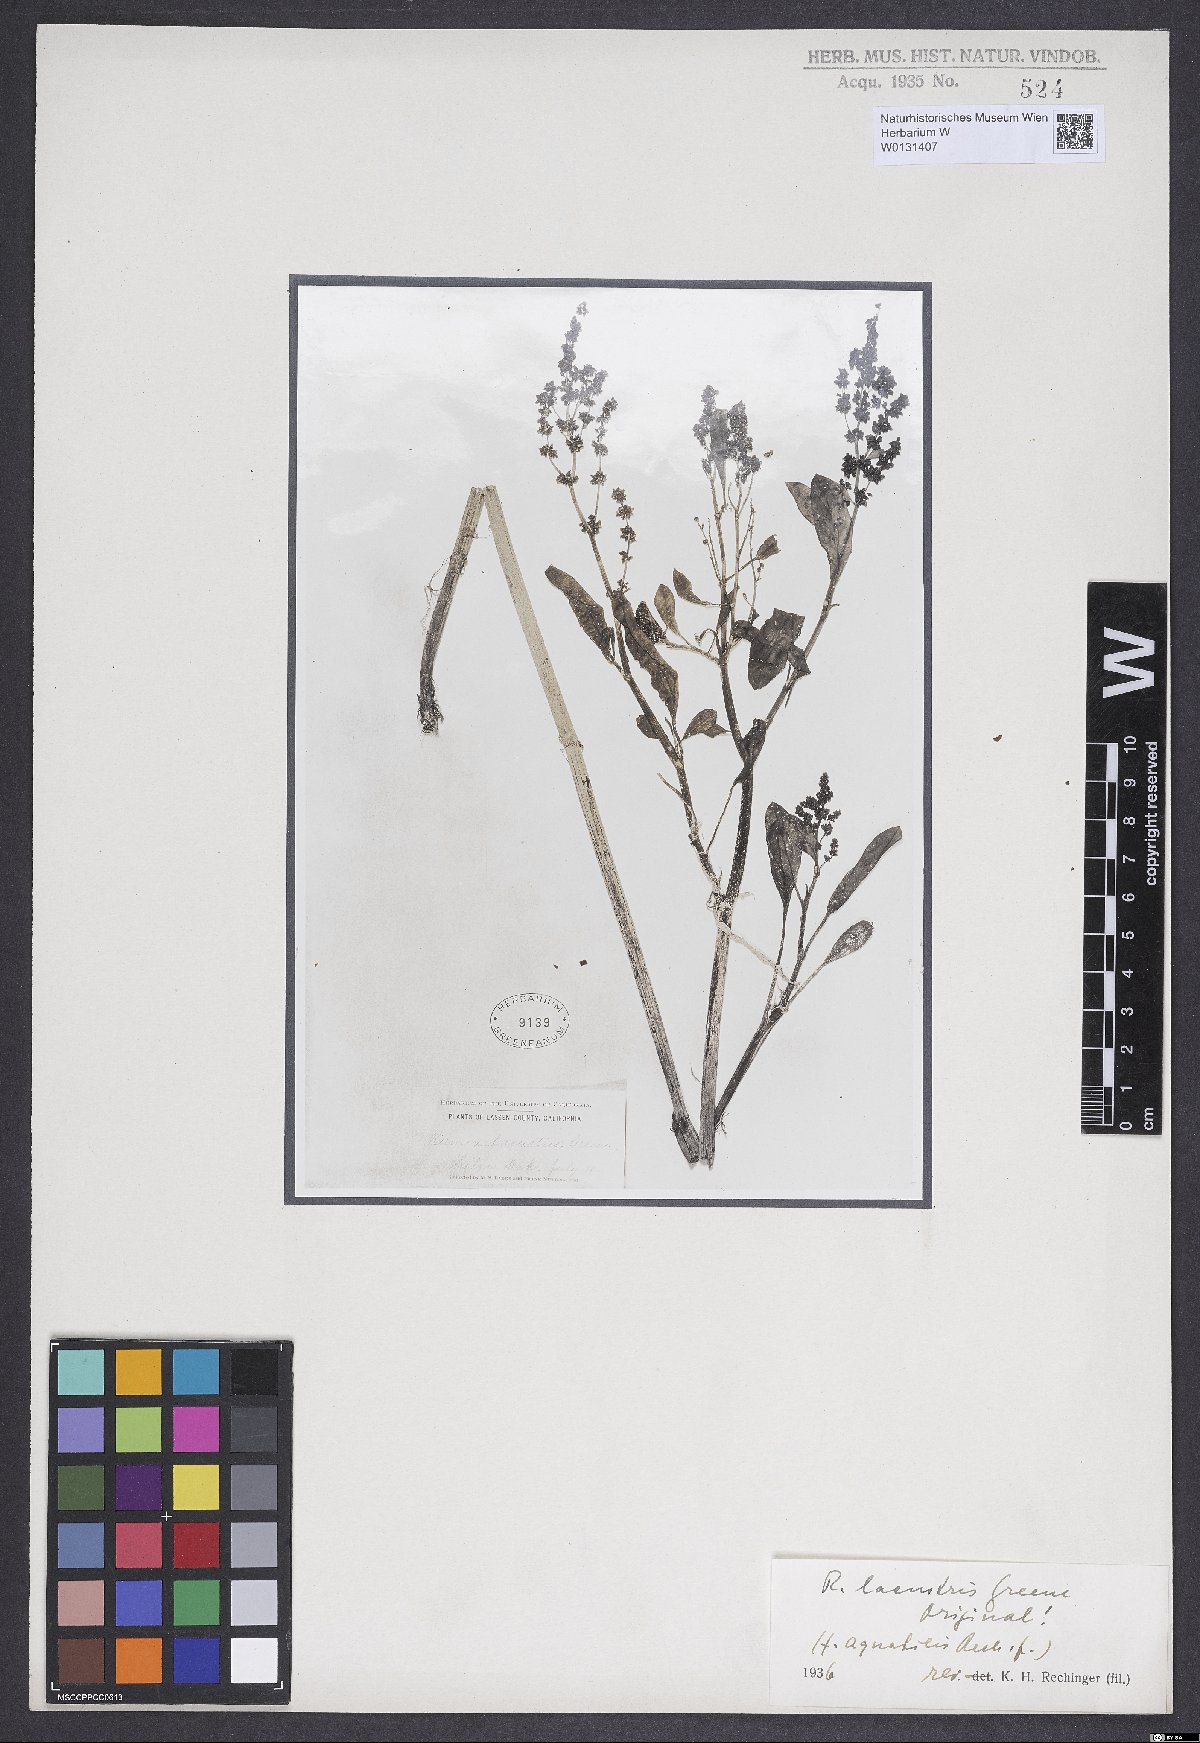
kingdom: Plantae
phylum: Tracheophyta
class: Magnoliopsida
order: Caryophyllales
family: Polygonaceae
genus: Rumex
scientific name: Rumex aquaticiformis
